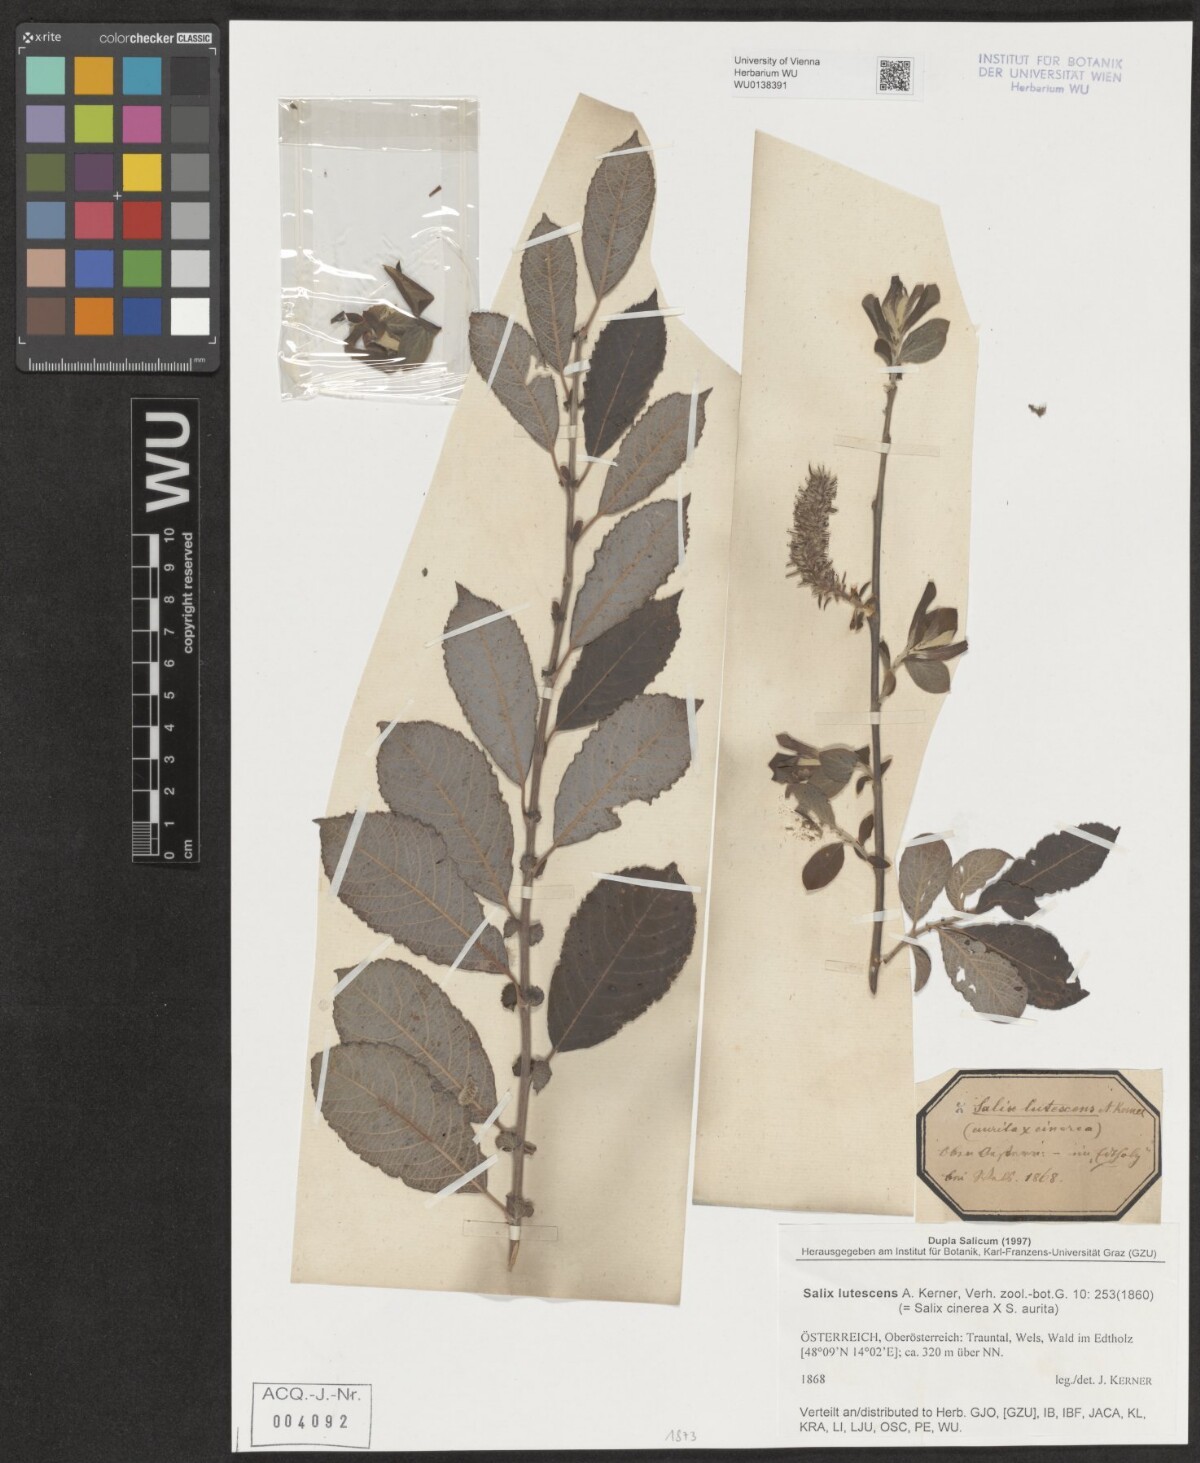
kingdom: Plantae
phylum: Tracheophyta
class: Magnoliopsida
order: Malpighiales
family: Salicaceae
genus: Salix
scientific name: Salix cinerea
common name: Common sallow
